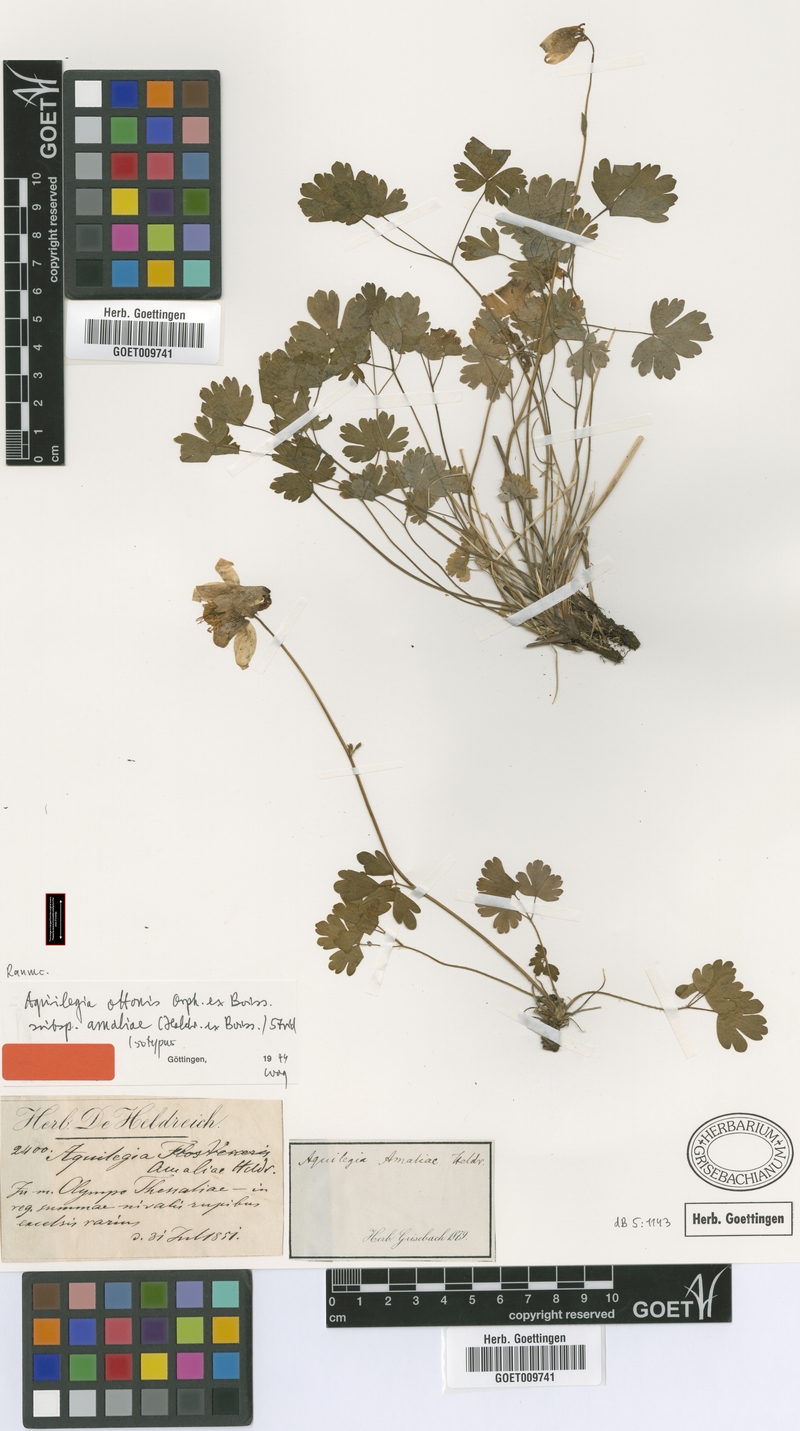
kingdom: Plantae
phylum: Tracheophyta
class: Magnoliopsida
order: Ranunculales
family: Ranunculaceae
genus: Aquilegia
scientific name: Aquilegia ottonis
